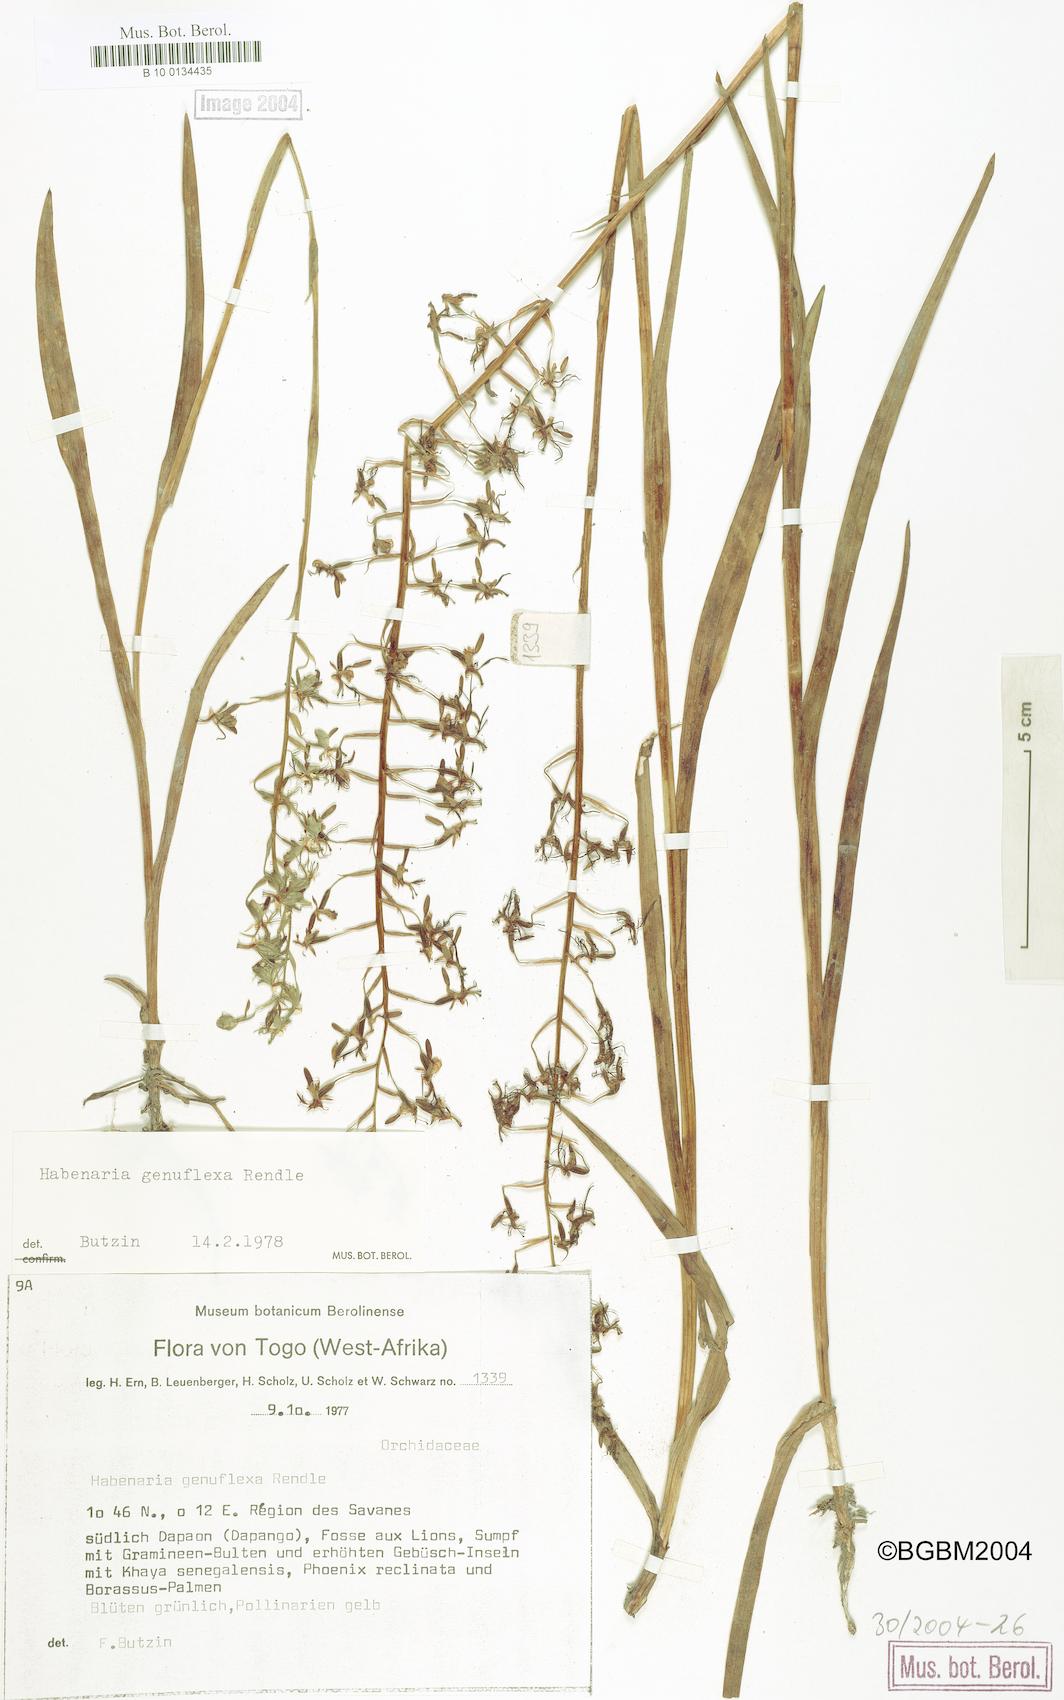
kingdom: Plantae
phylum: Tracheophyta
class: Liliopsida
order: Asparagales
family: Orchidaceae
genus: Habenaria
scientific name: Habenaria schimperiana
